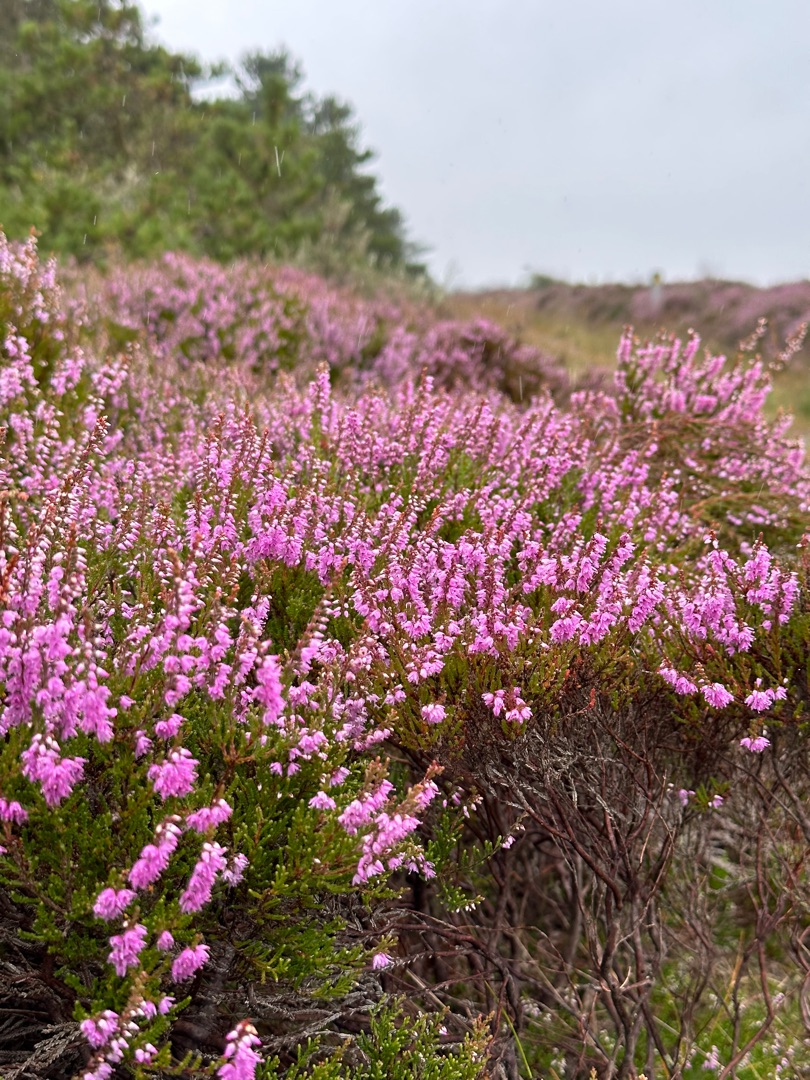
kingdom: Plantae
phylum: Tracheophyta
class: Magnoliopsida
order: Ericales
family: Ericaceae
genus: Calluna
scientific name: Calluna vulgaris
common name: Hedelyng
